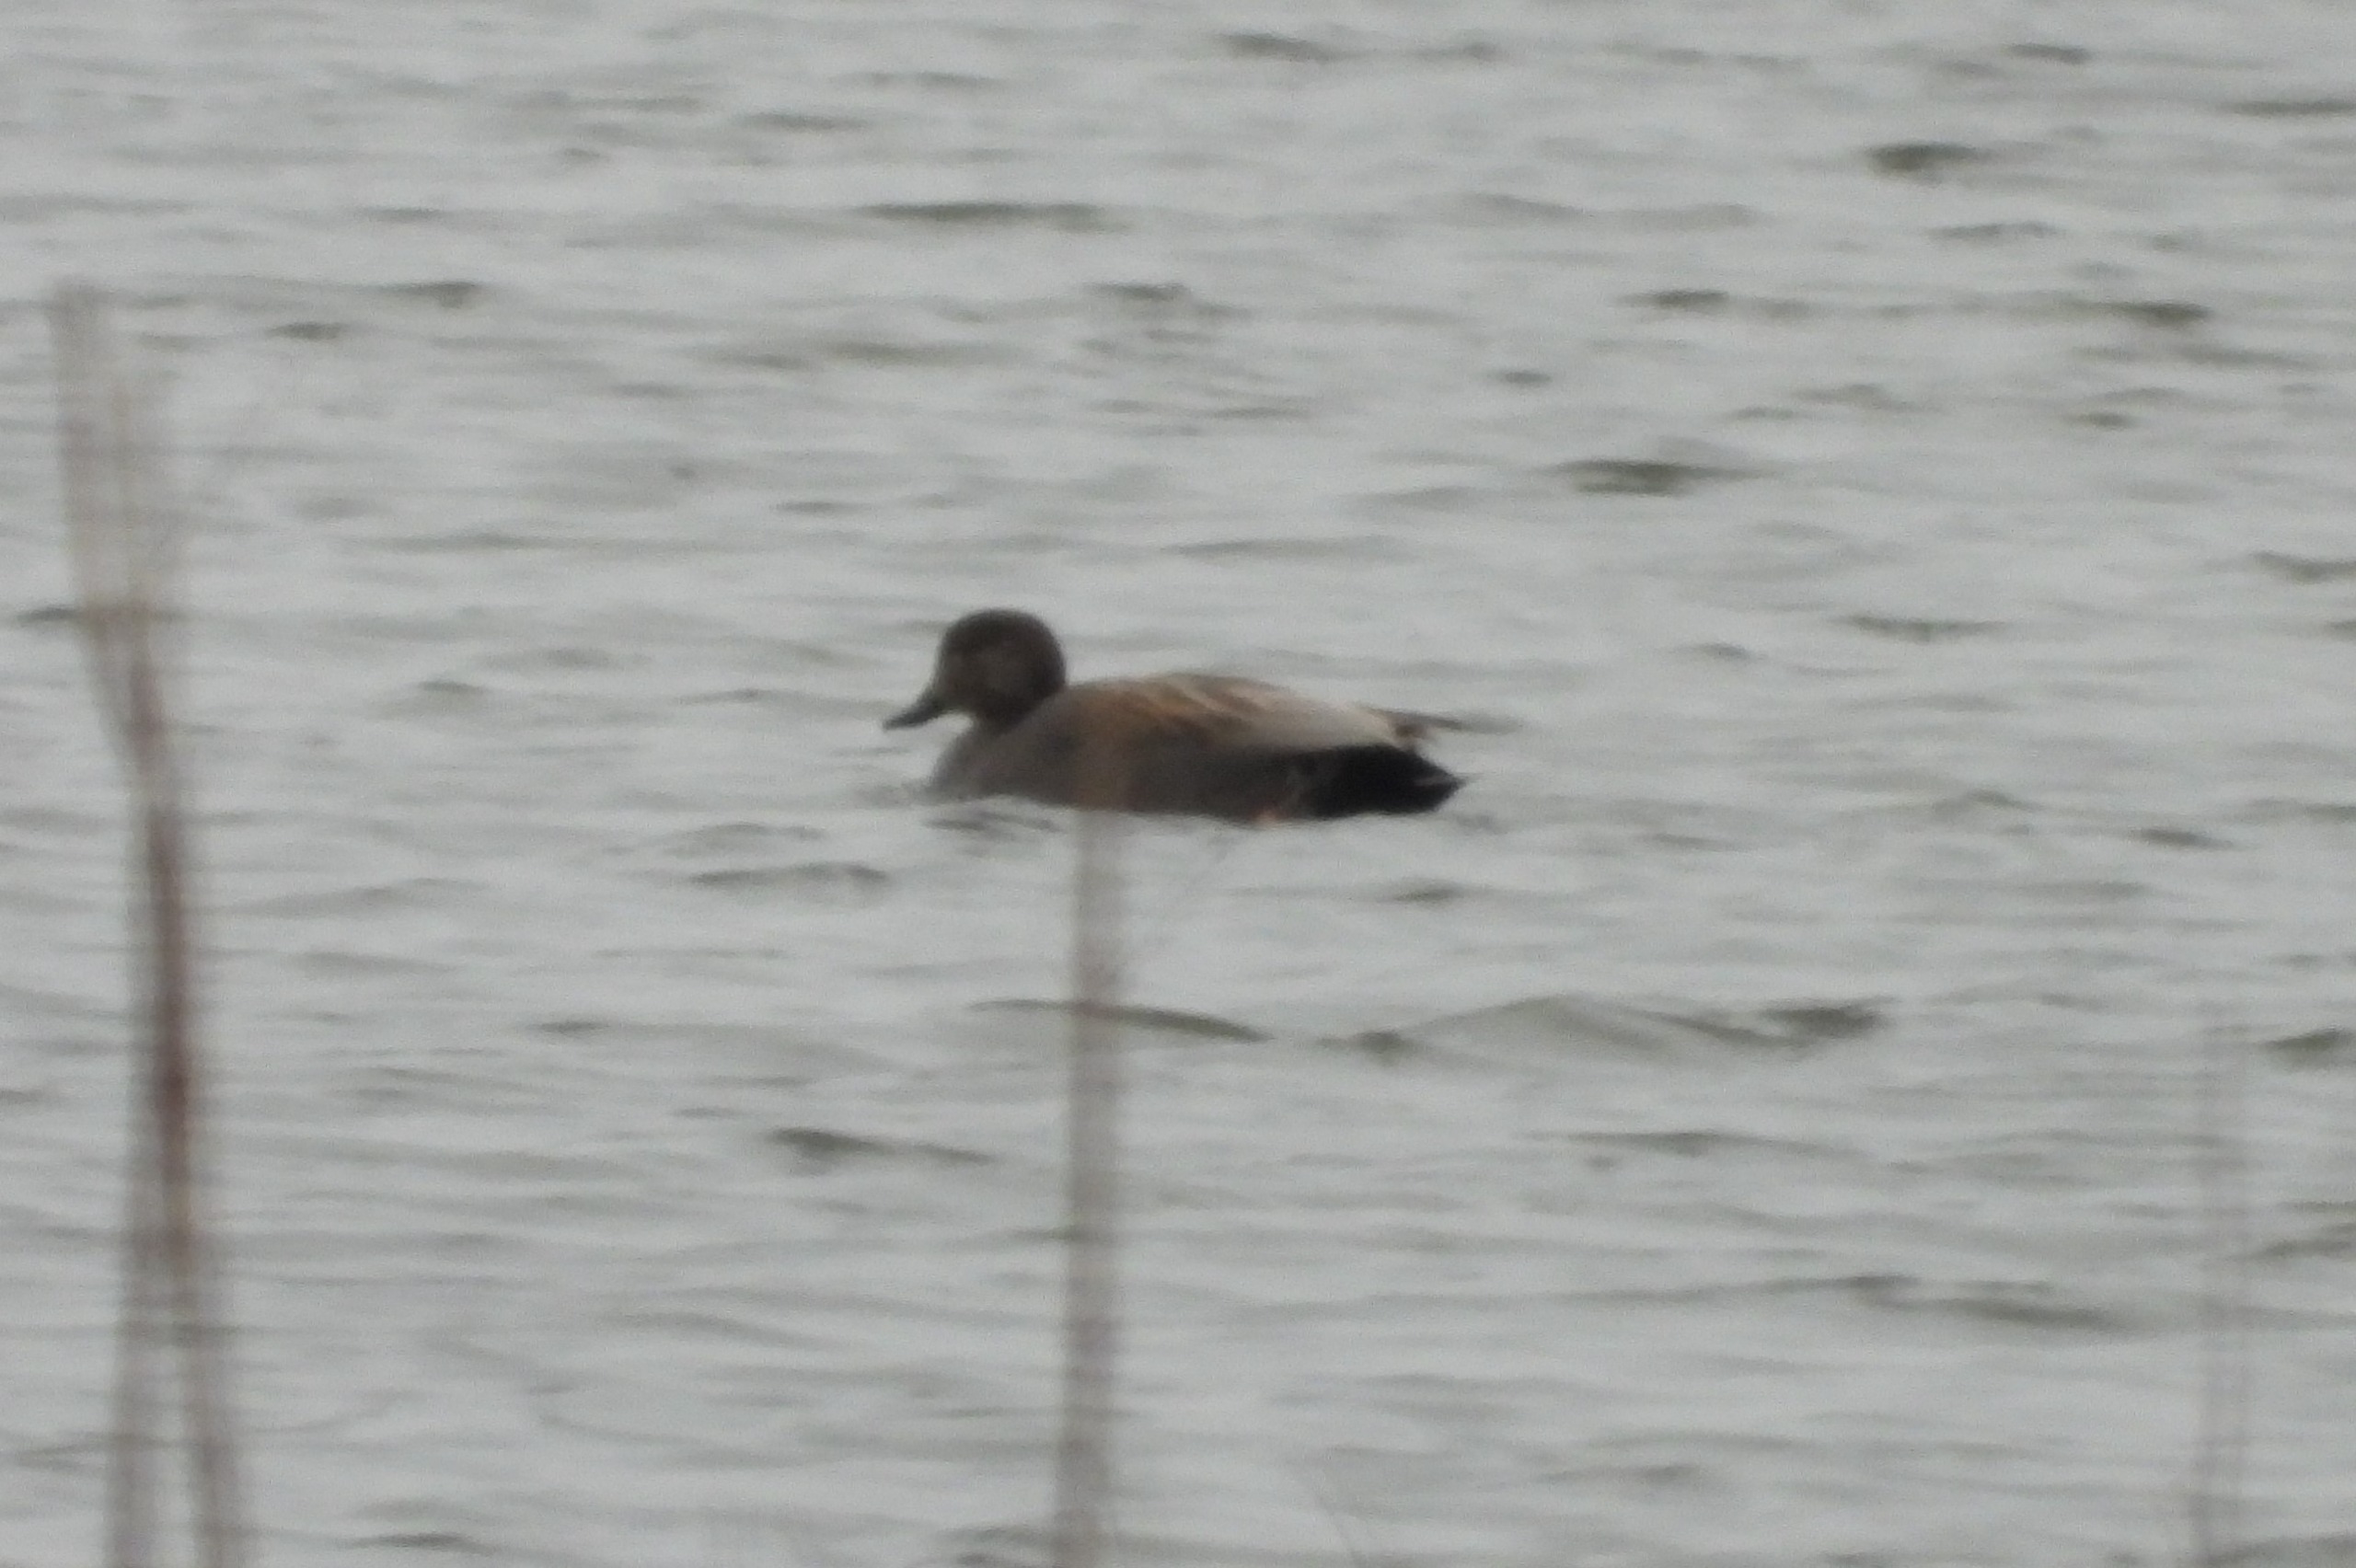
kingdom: Animalia
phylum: Chordata
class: Aves
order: Anseriformes
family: Anatidae
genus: Mareca
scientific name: Mareca strepera
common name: Knarand
